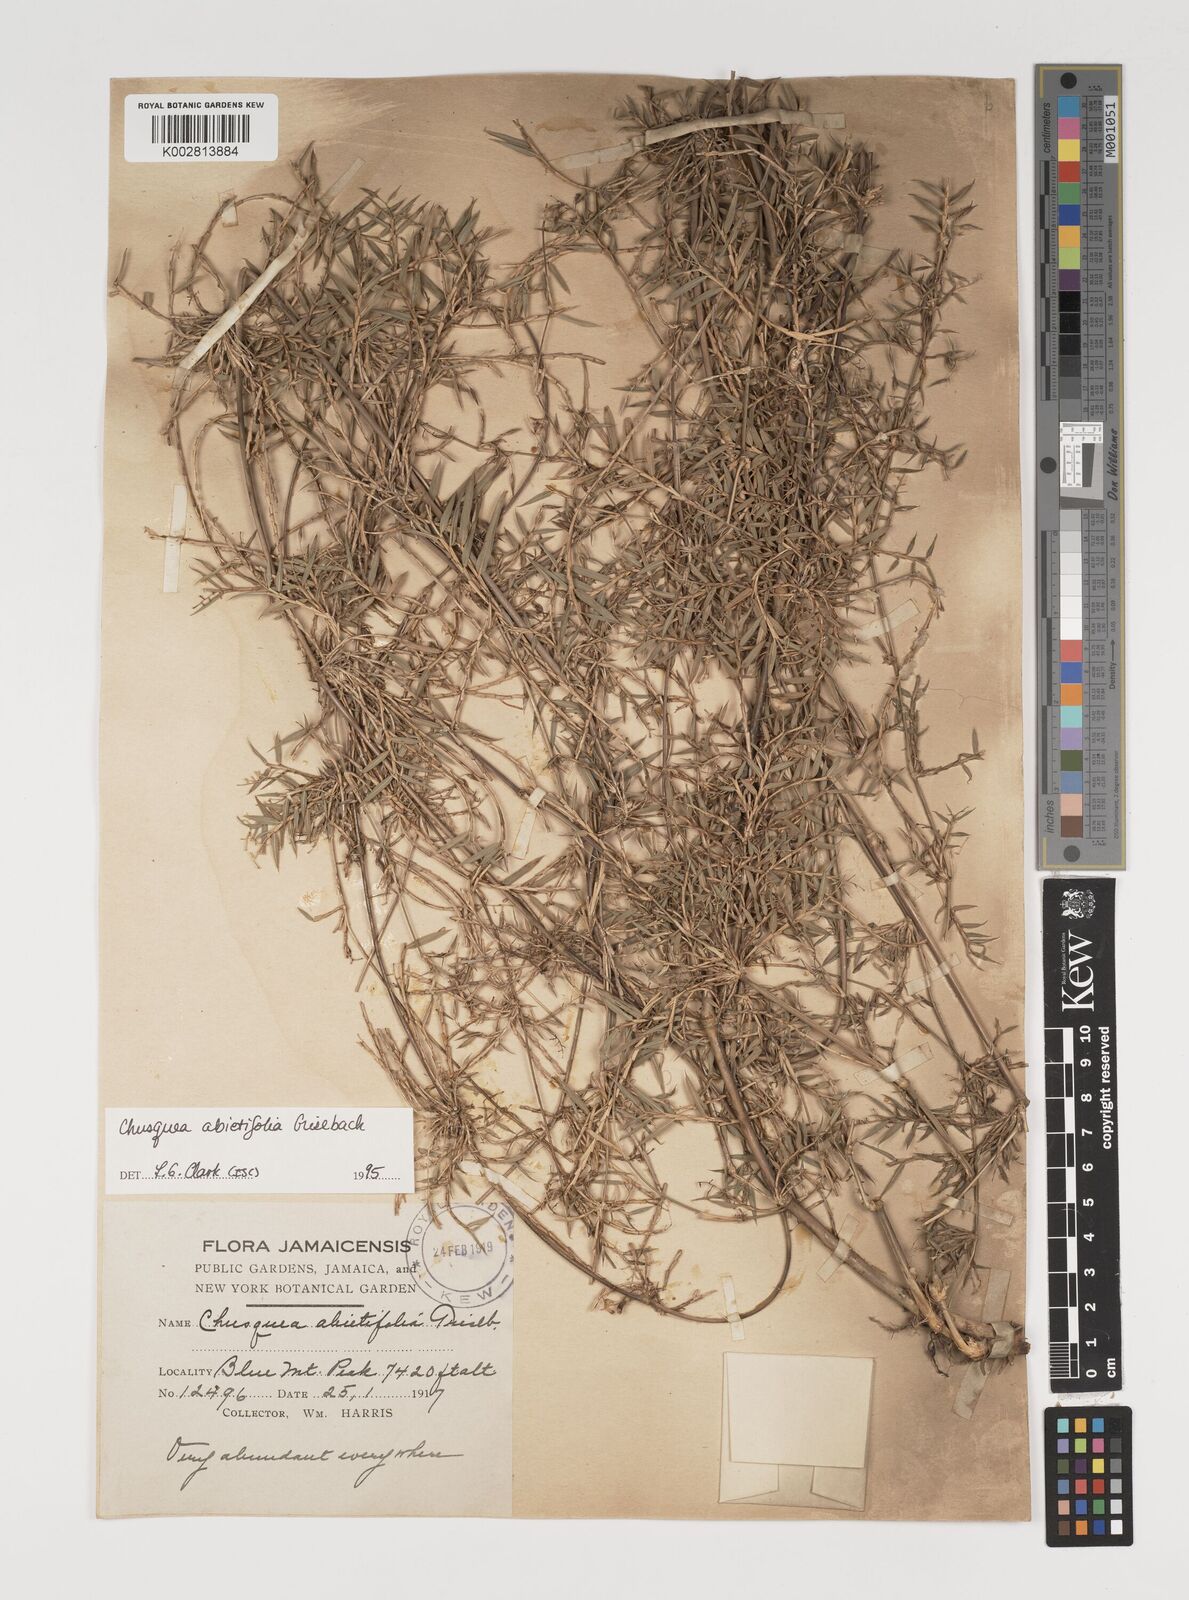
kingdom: Plantae
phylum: Tracheophyta
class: Liliopsida
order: Poales
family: Poaceae
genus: Chusquea
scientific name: Chusquea abietifolia
